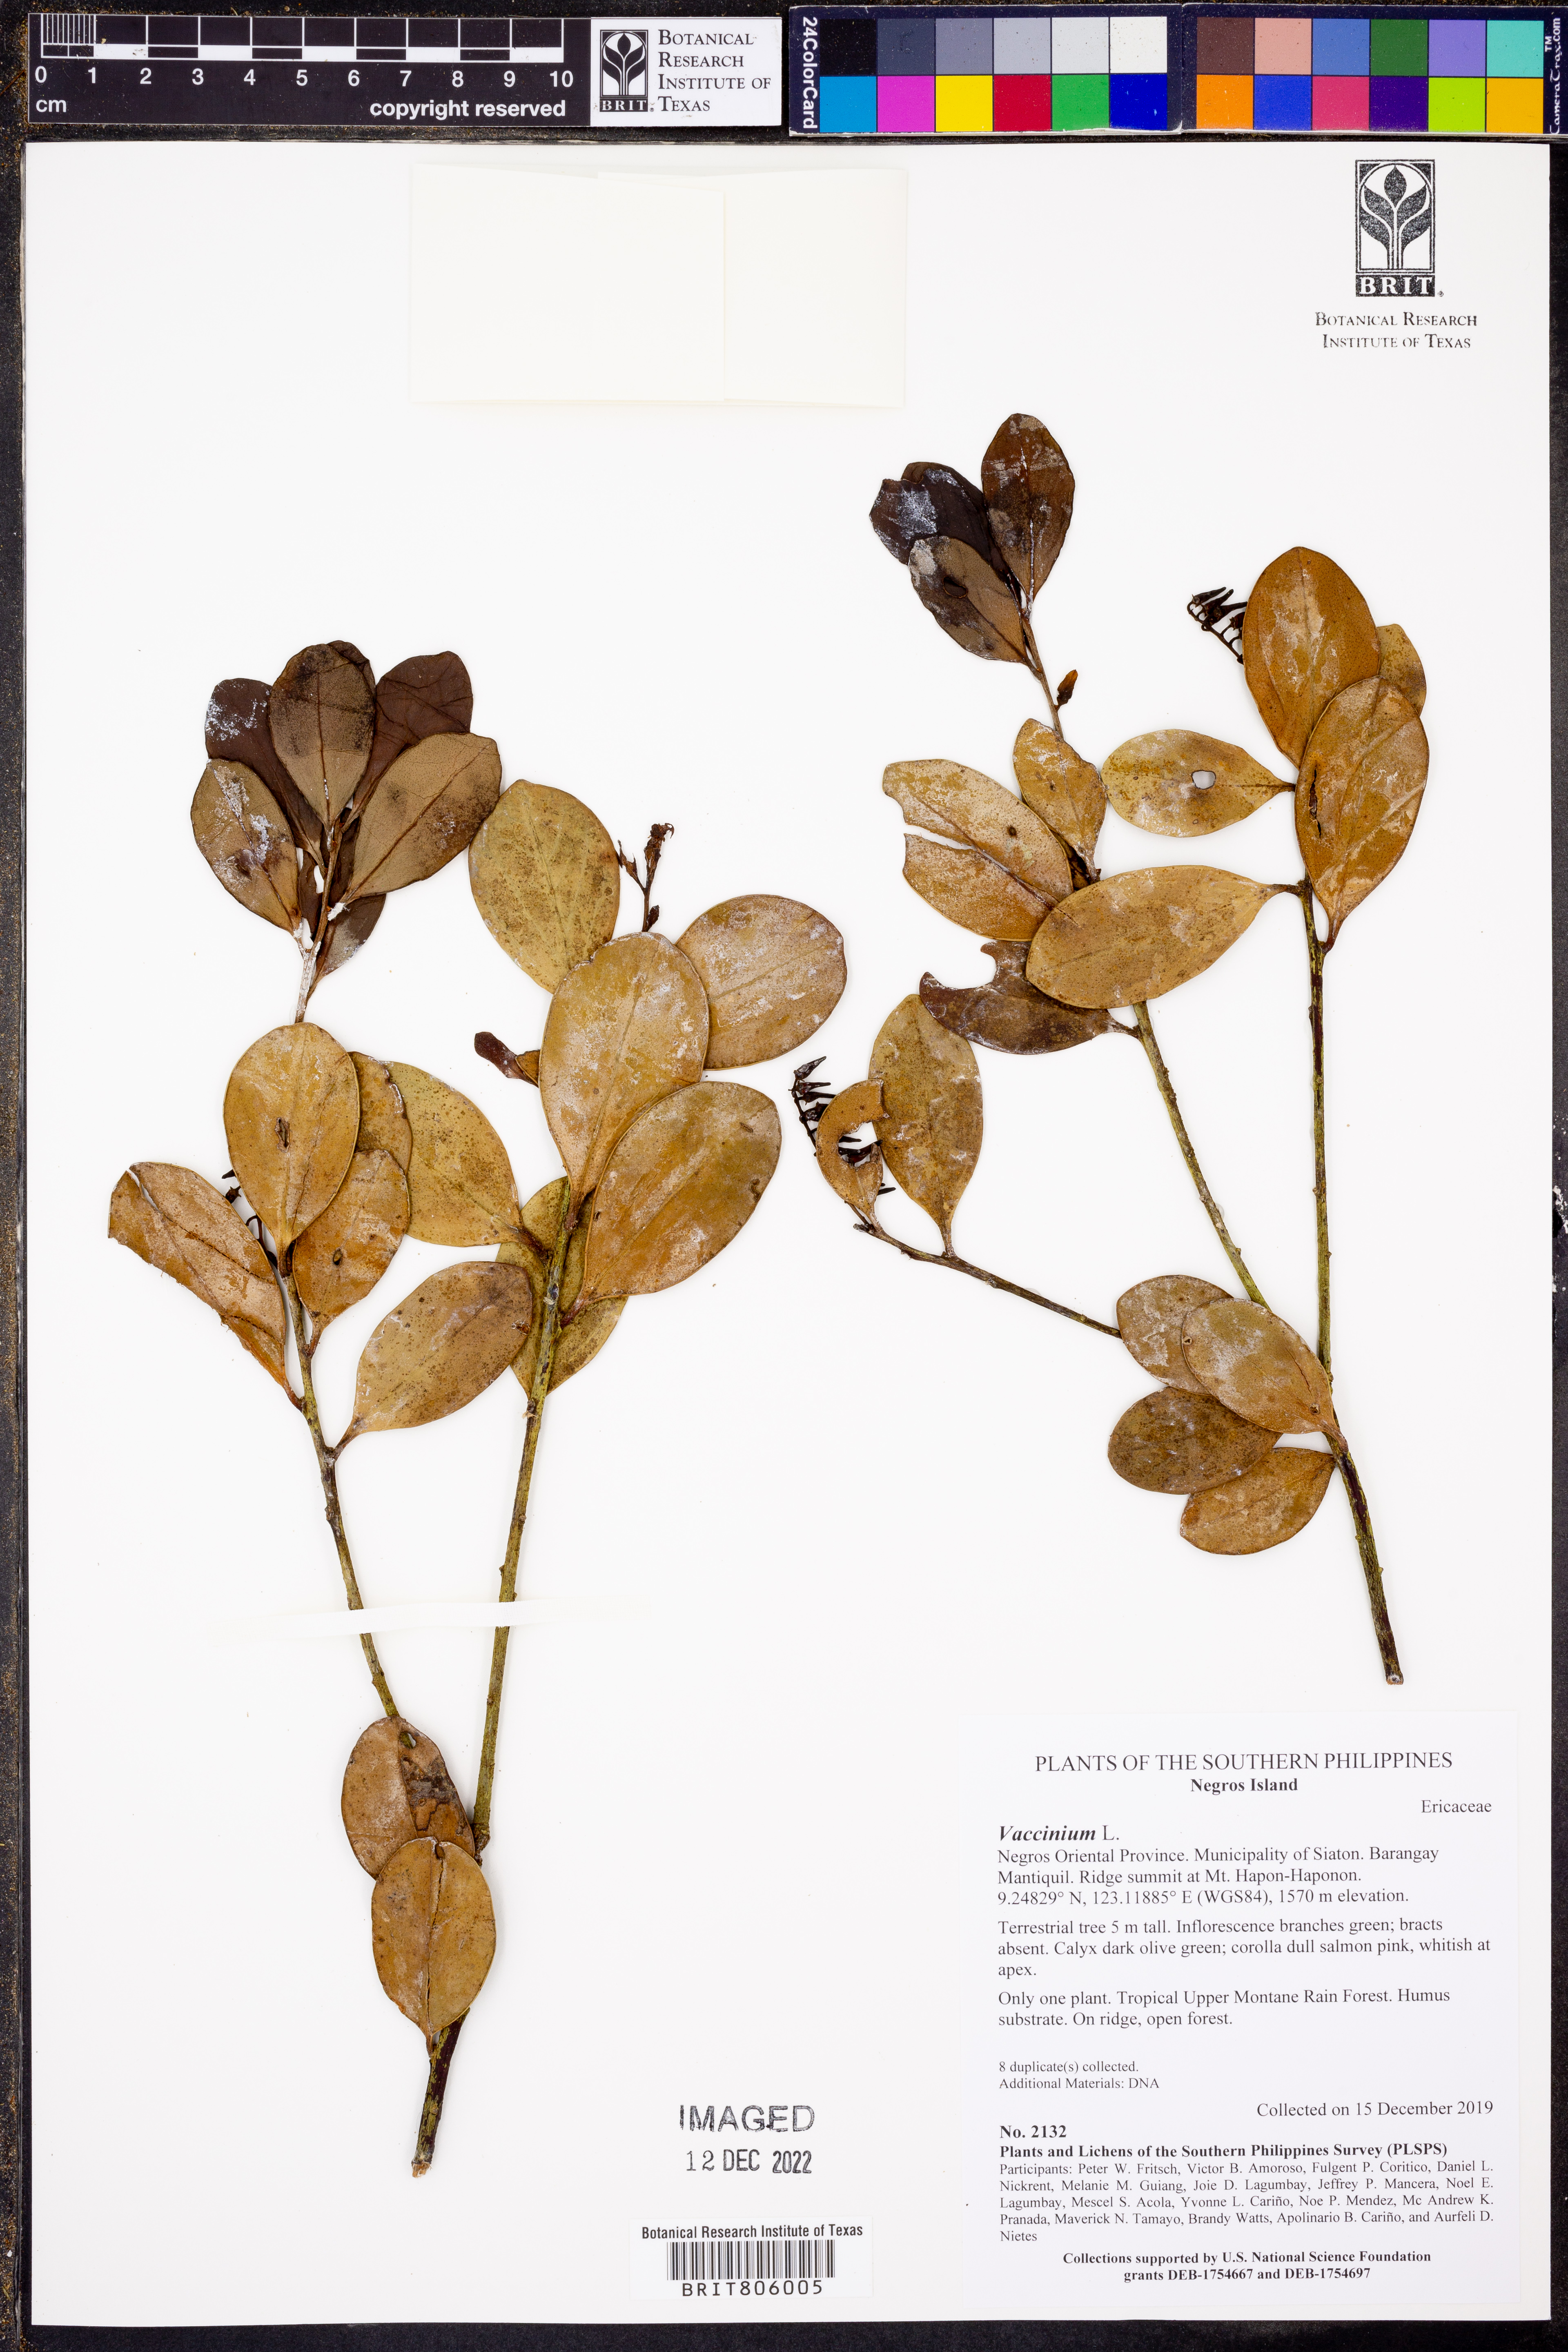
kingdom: Plantae
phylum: Tracheophyta
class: Magnoliopsida
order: Ericales
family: Ericaceae
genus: Vaccinium
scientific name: Vaccinium
